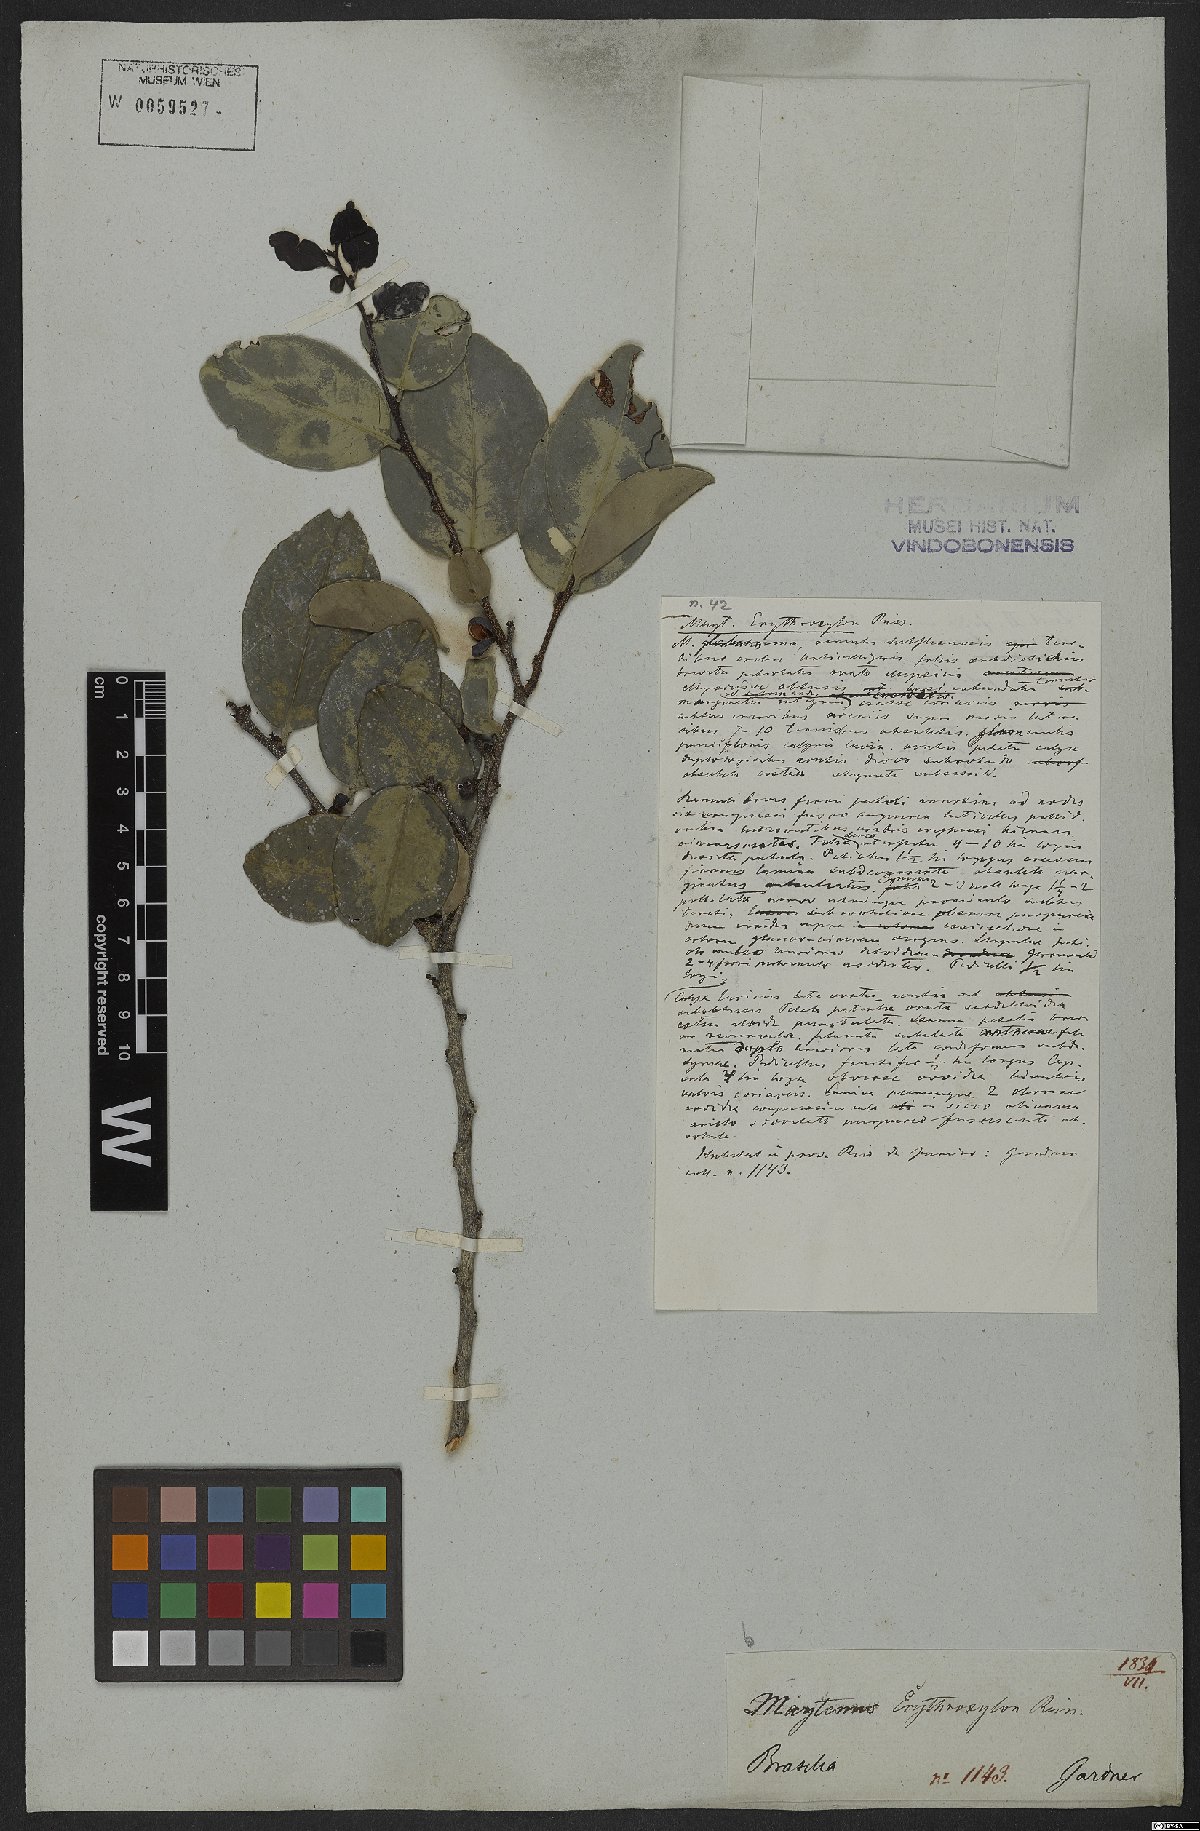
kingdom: Plantae
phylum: Tracheophyta
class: Magnoliopsida
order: Celastrales
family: Celastraceae
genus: Monteverdia
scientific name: Monteverdia erythroxylon
